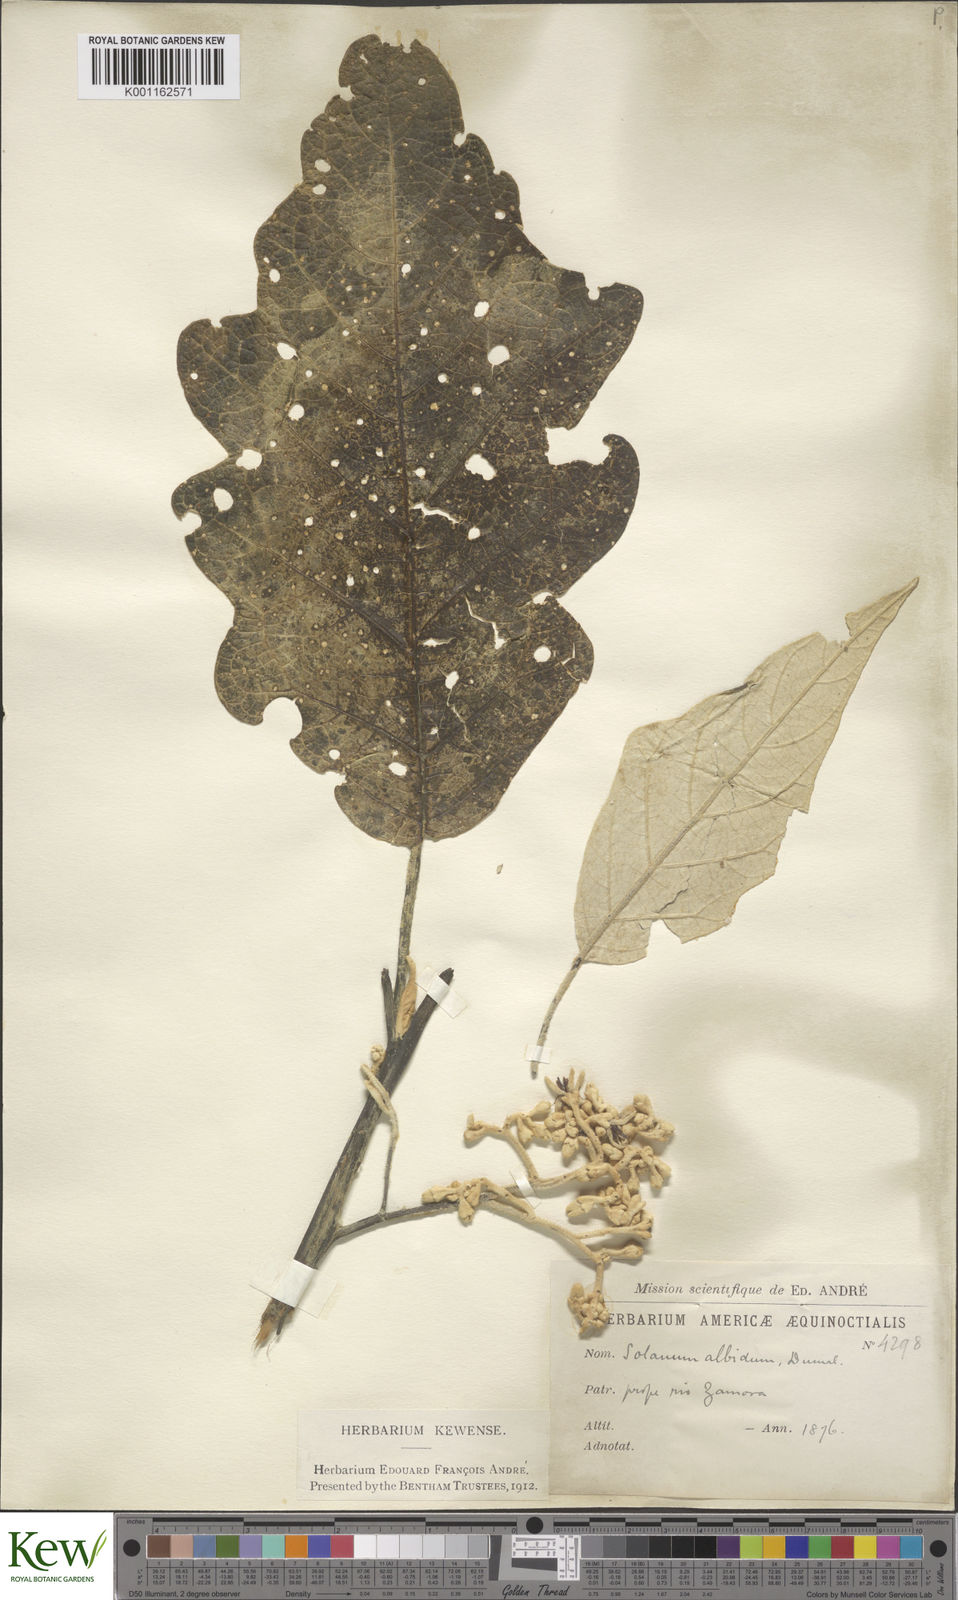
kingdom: Plantae
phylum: Tracheophyta
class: Magnoliopsida
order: Solanales
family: Solanaceae
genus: Solanum
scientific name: Solanum albidum
